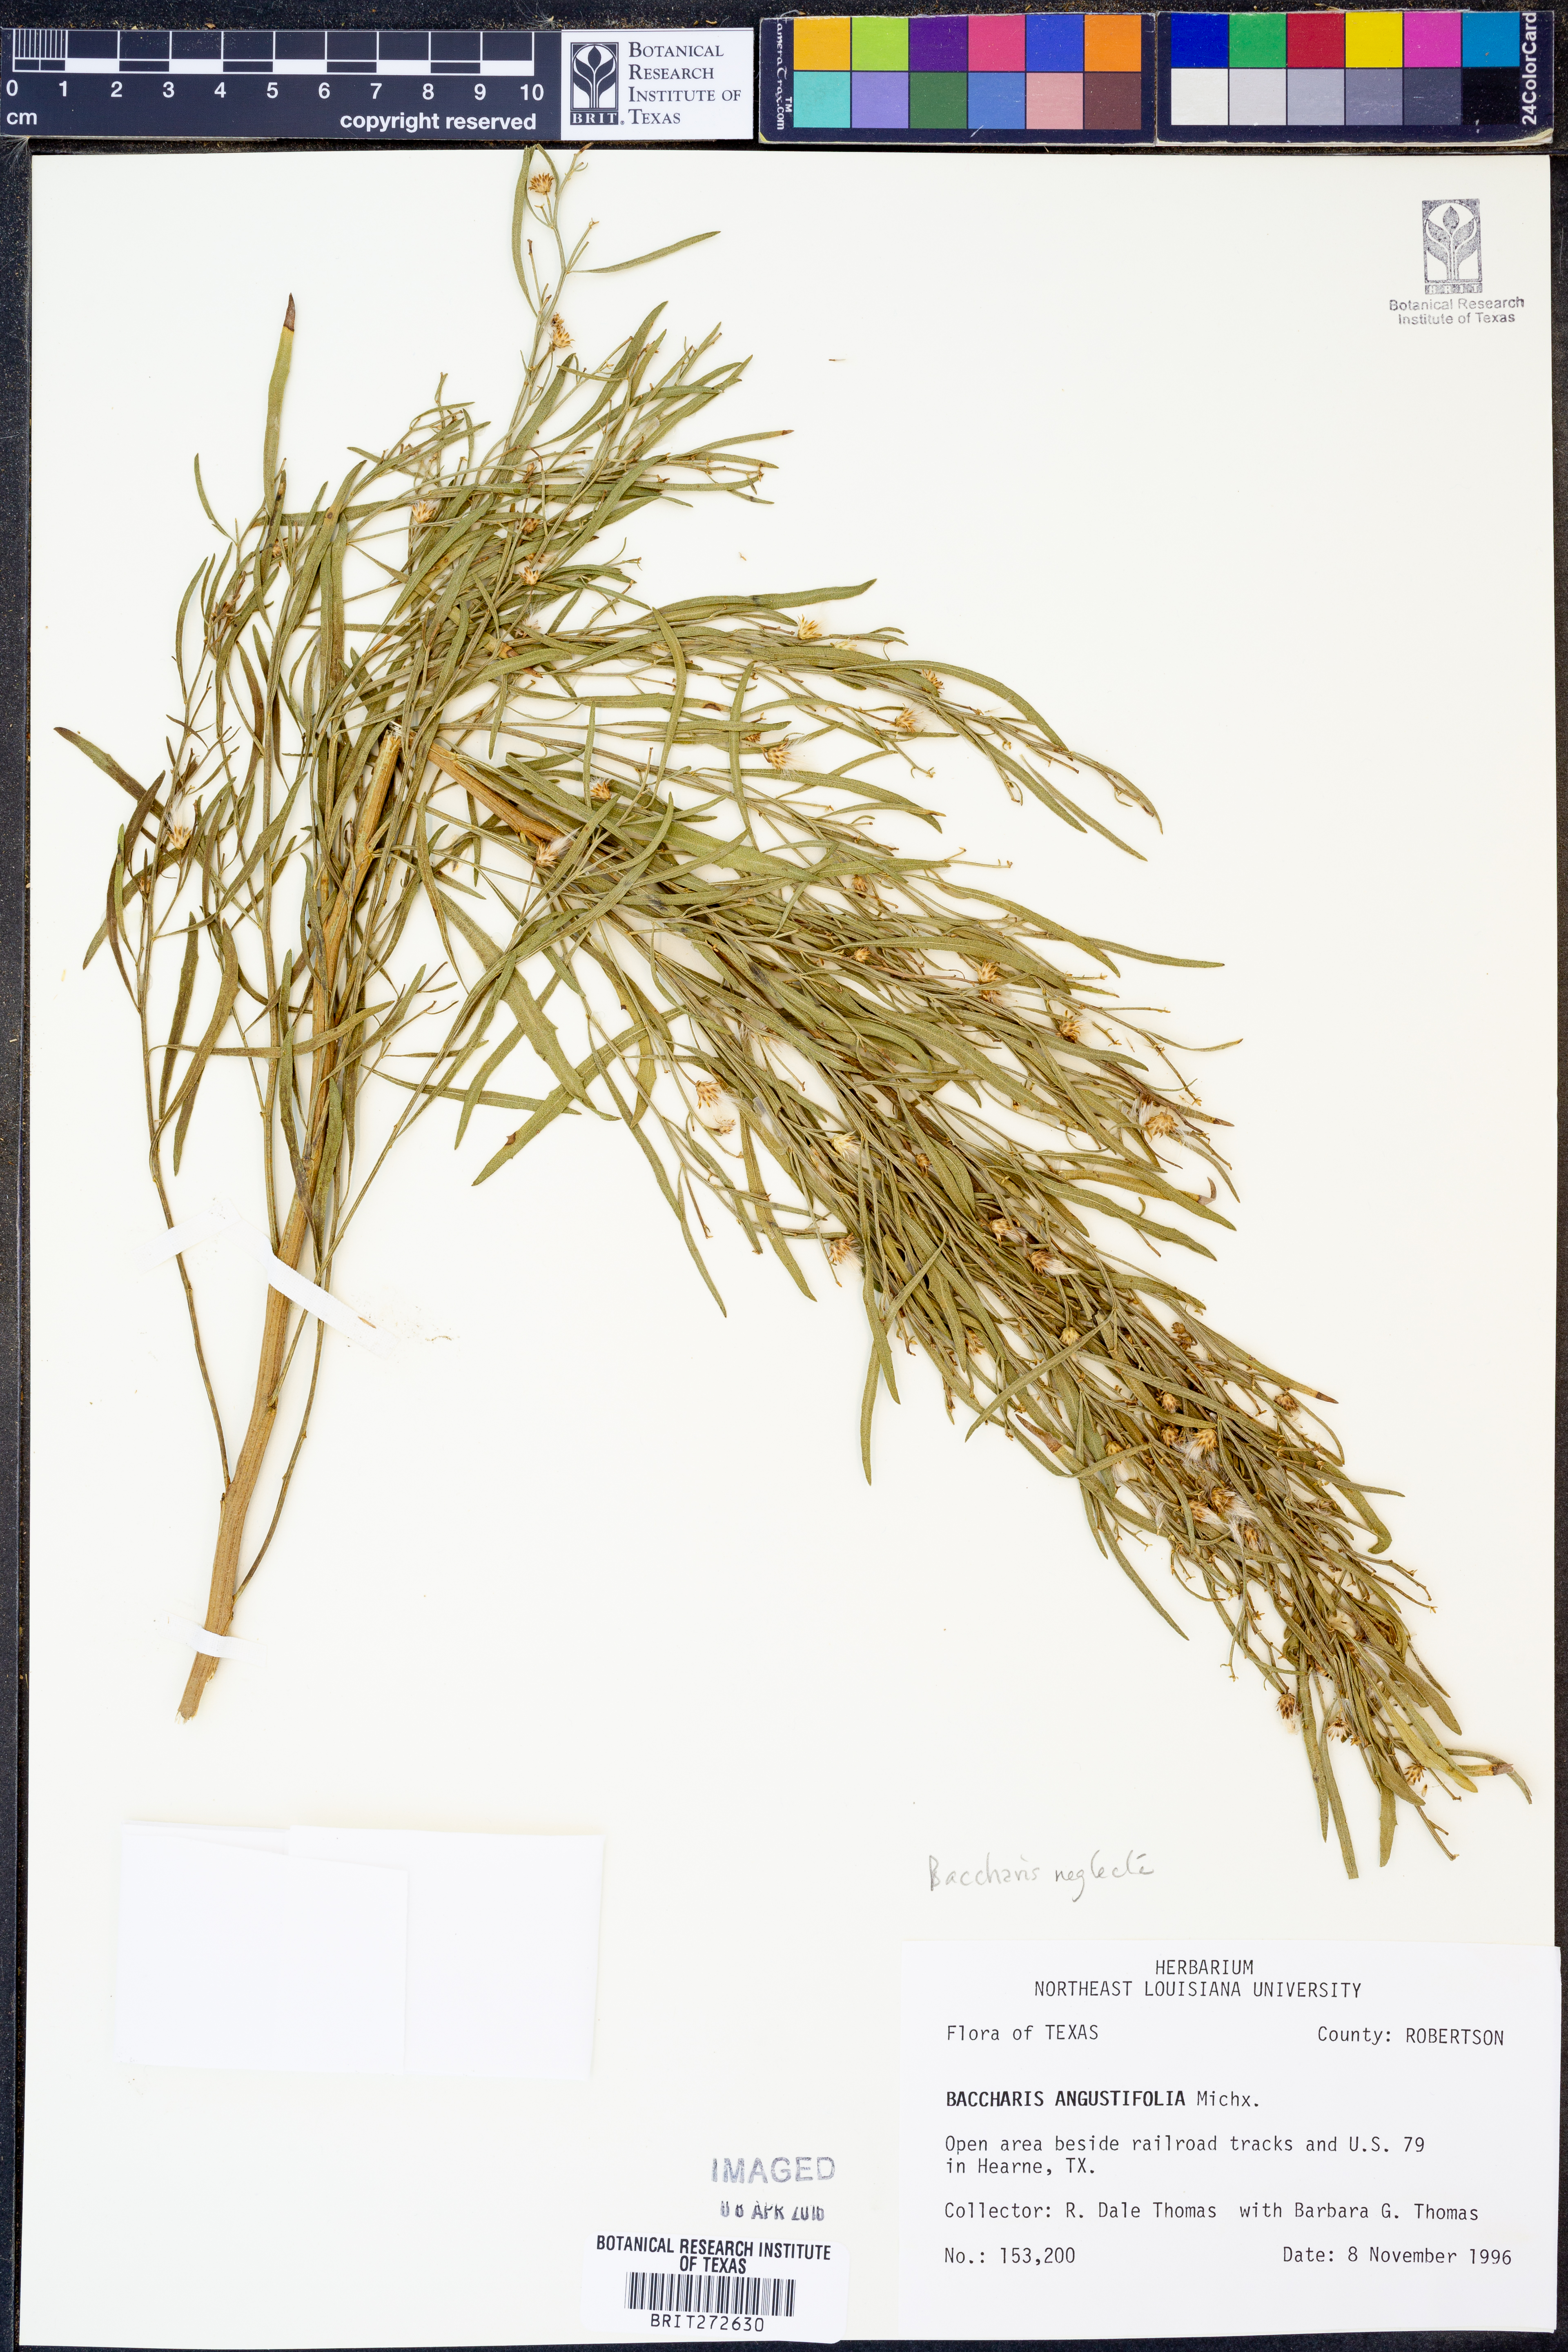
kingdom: Plantae
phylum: Tracheophyta
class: Magnoliopsida
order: Asterales
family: Asteraceae
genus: Baccharis
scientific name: Baccharis neglecta
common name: Roosevelt-weed
